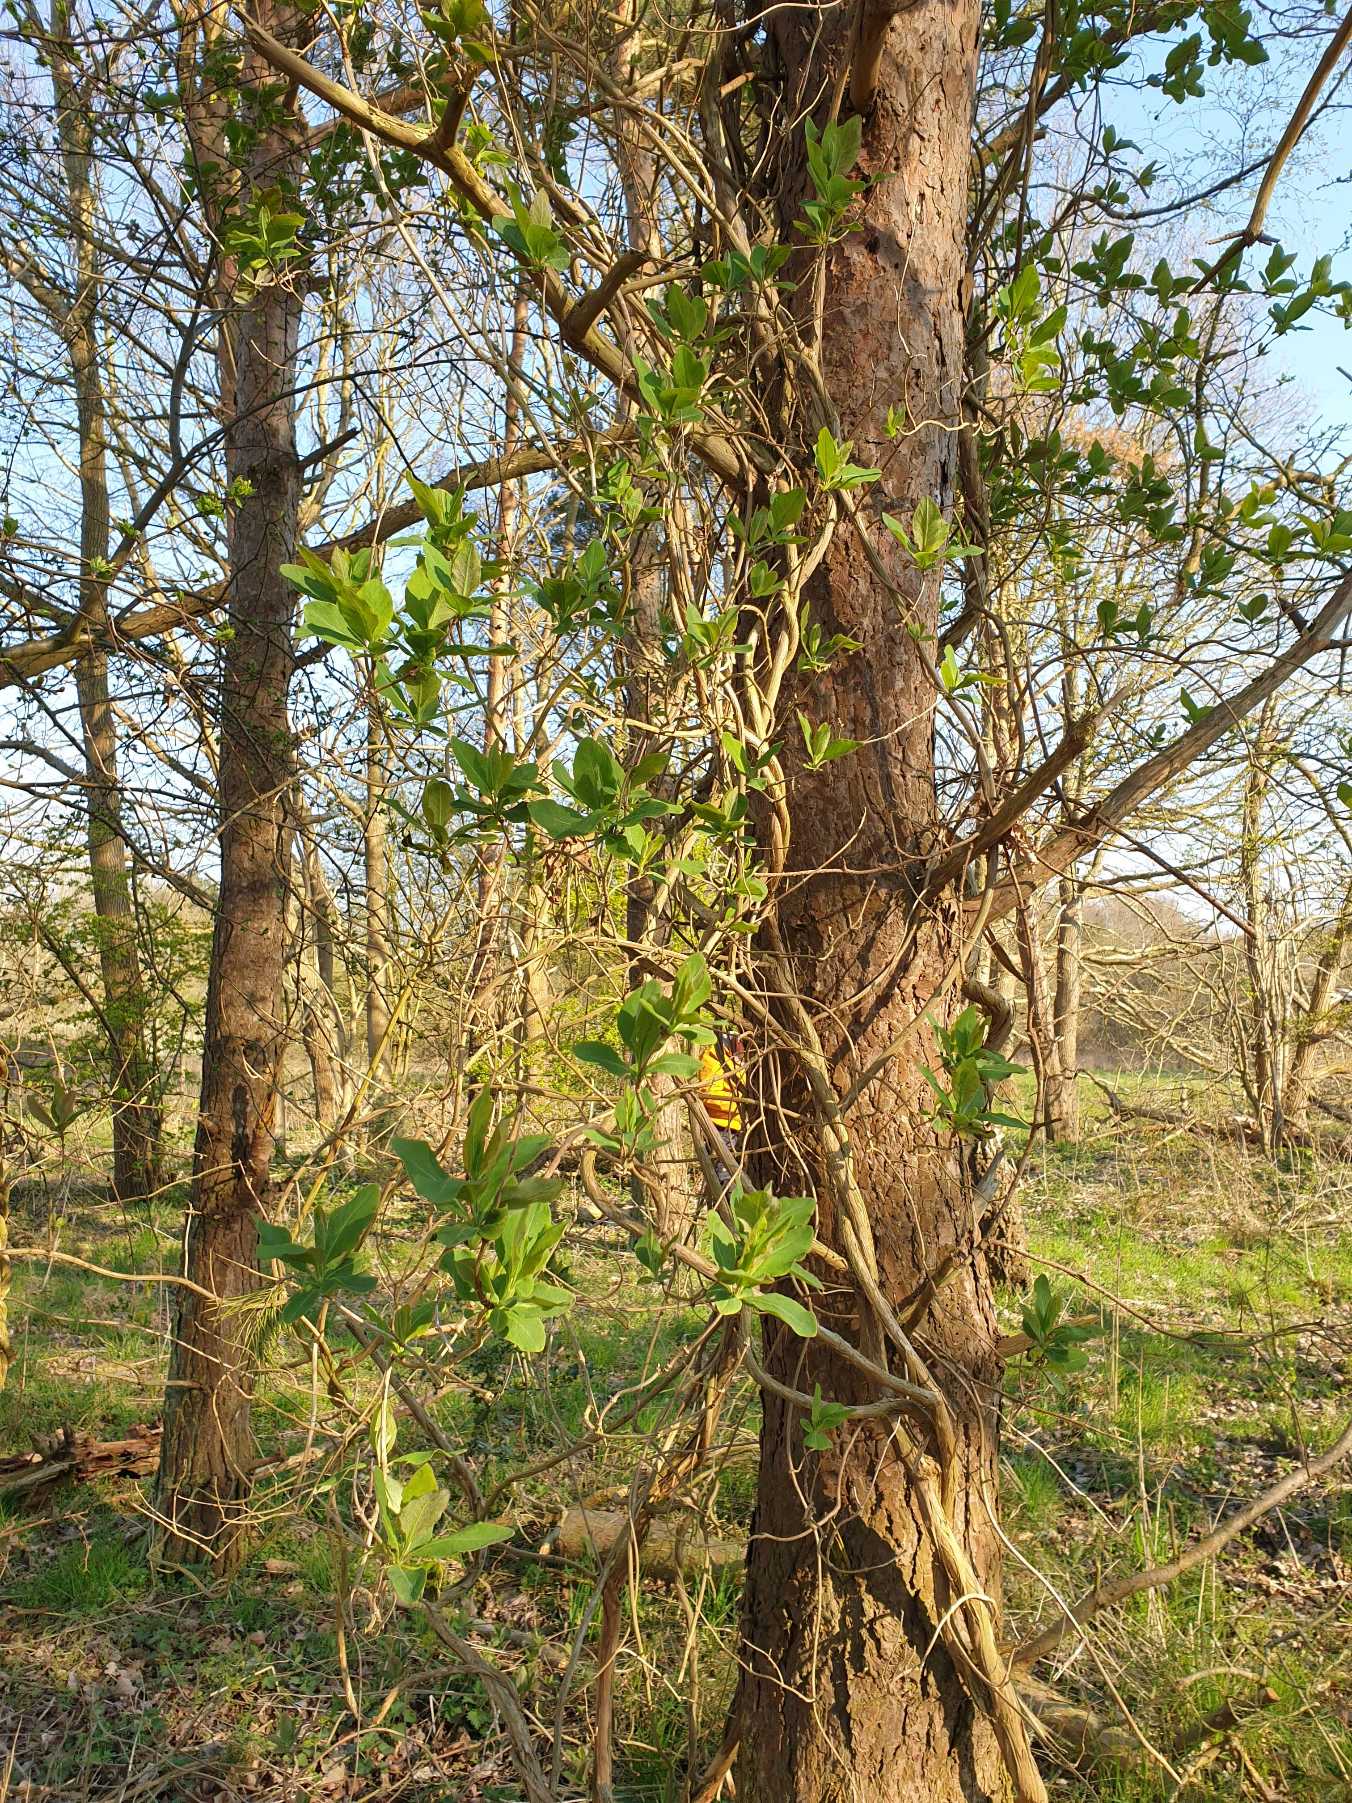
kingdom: Plantae
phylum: Tracheophyta
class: Magnoliopsida
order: Dipsacales
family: Caprifoliaceae
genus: Lonicera
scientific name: Lonicera periclymenum
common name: Almindelig gedeblad
